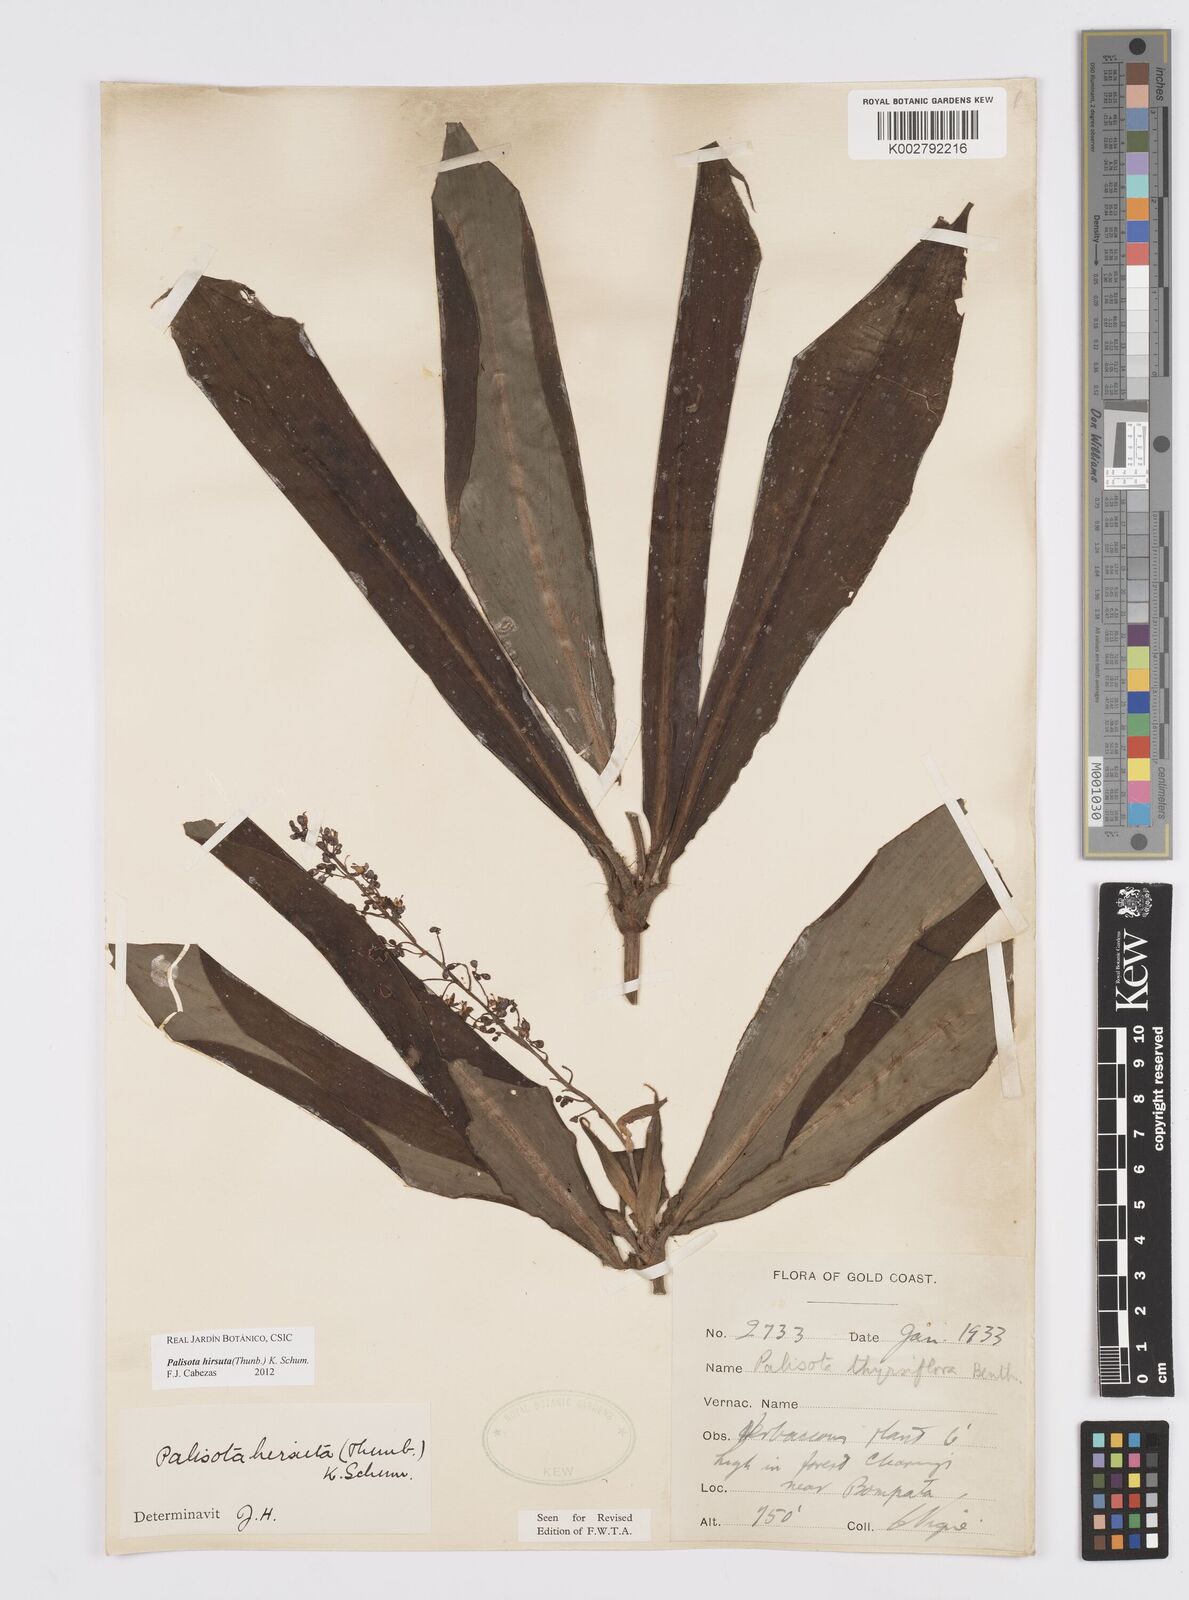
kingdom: Plantae
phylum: Tracheophyta
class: Liliopsida
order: Commelinales
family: Commelinaceae
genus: Palisota
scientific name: Palisota hirsuta
